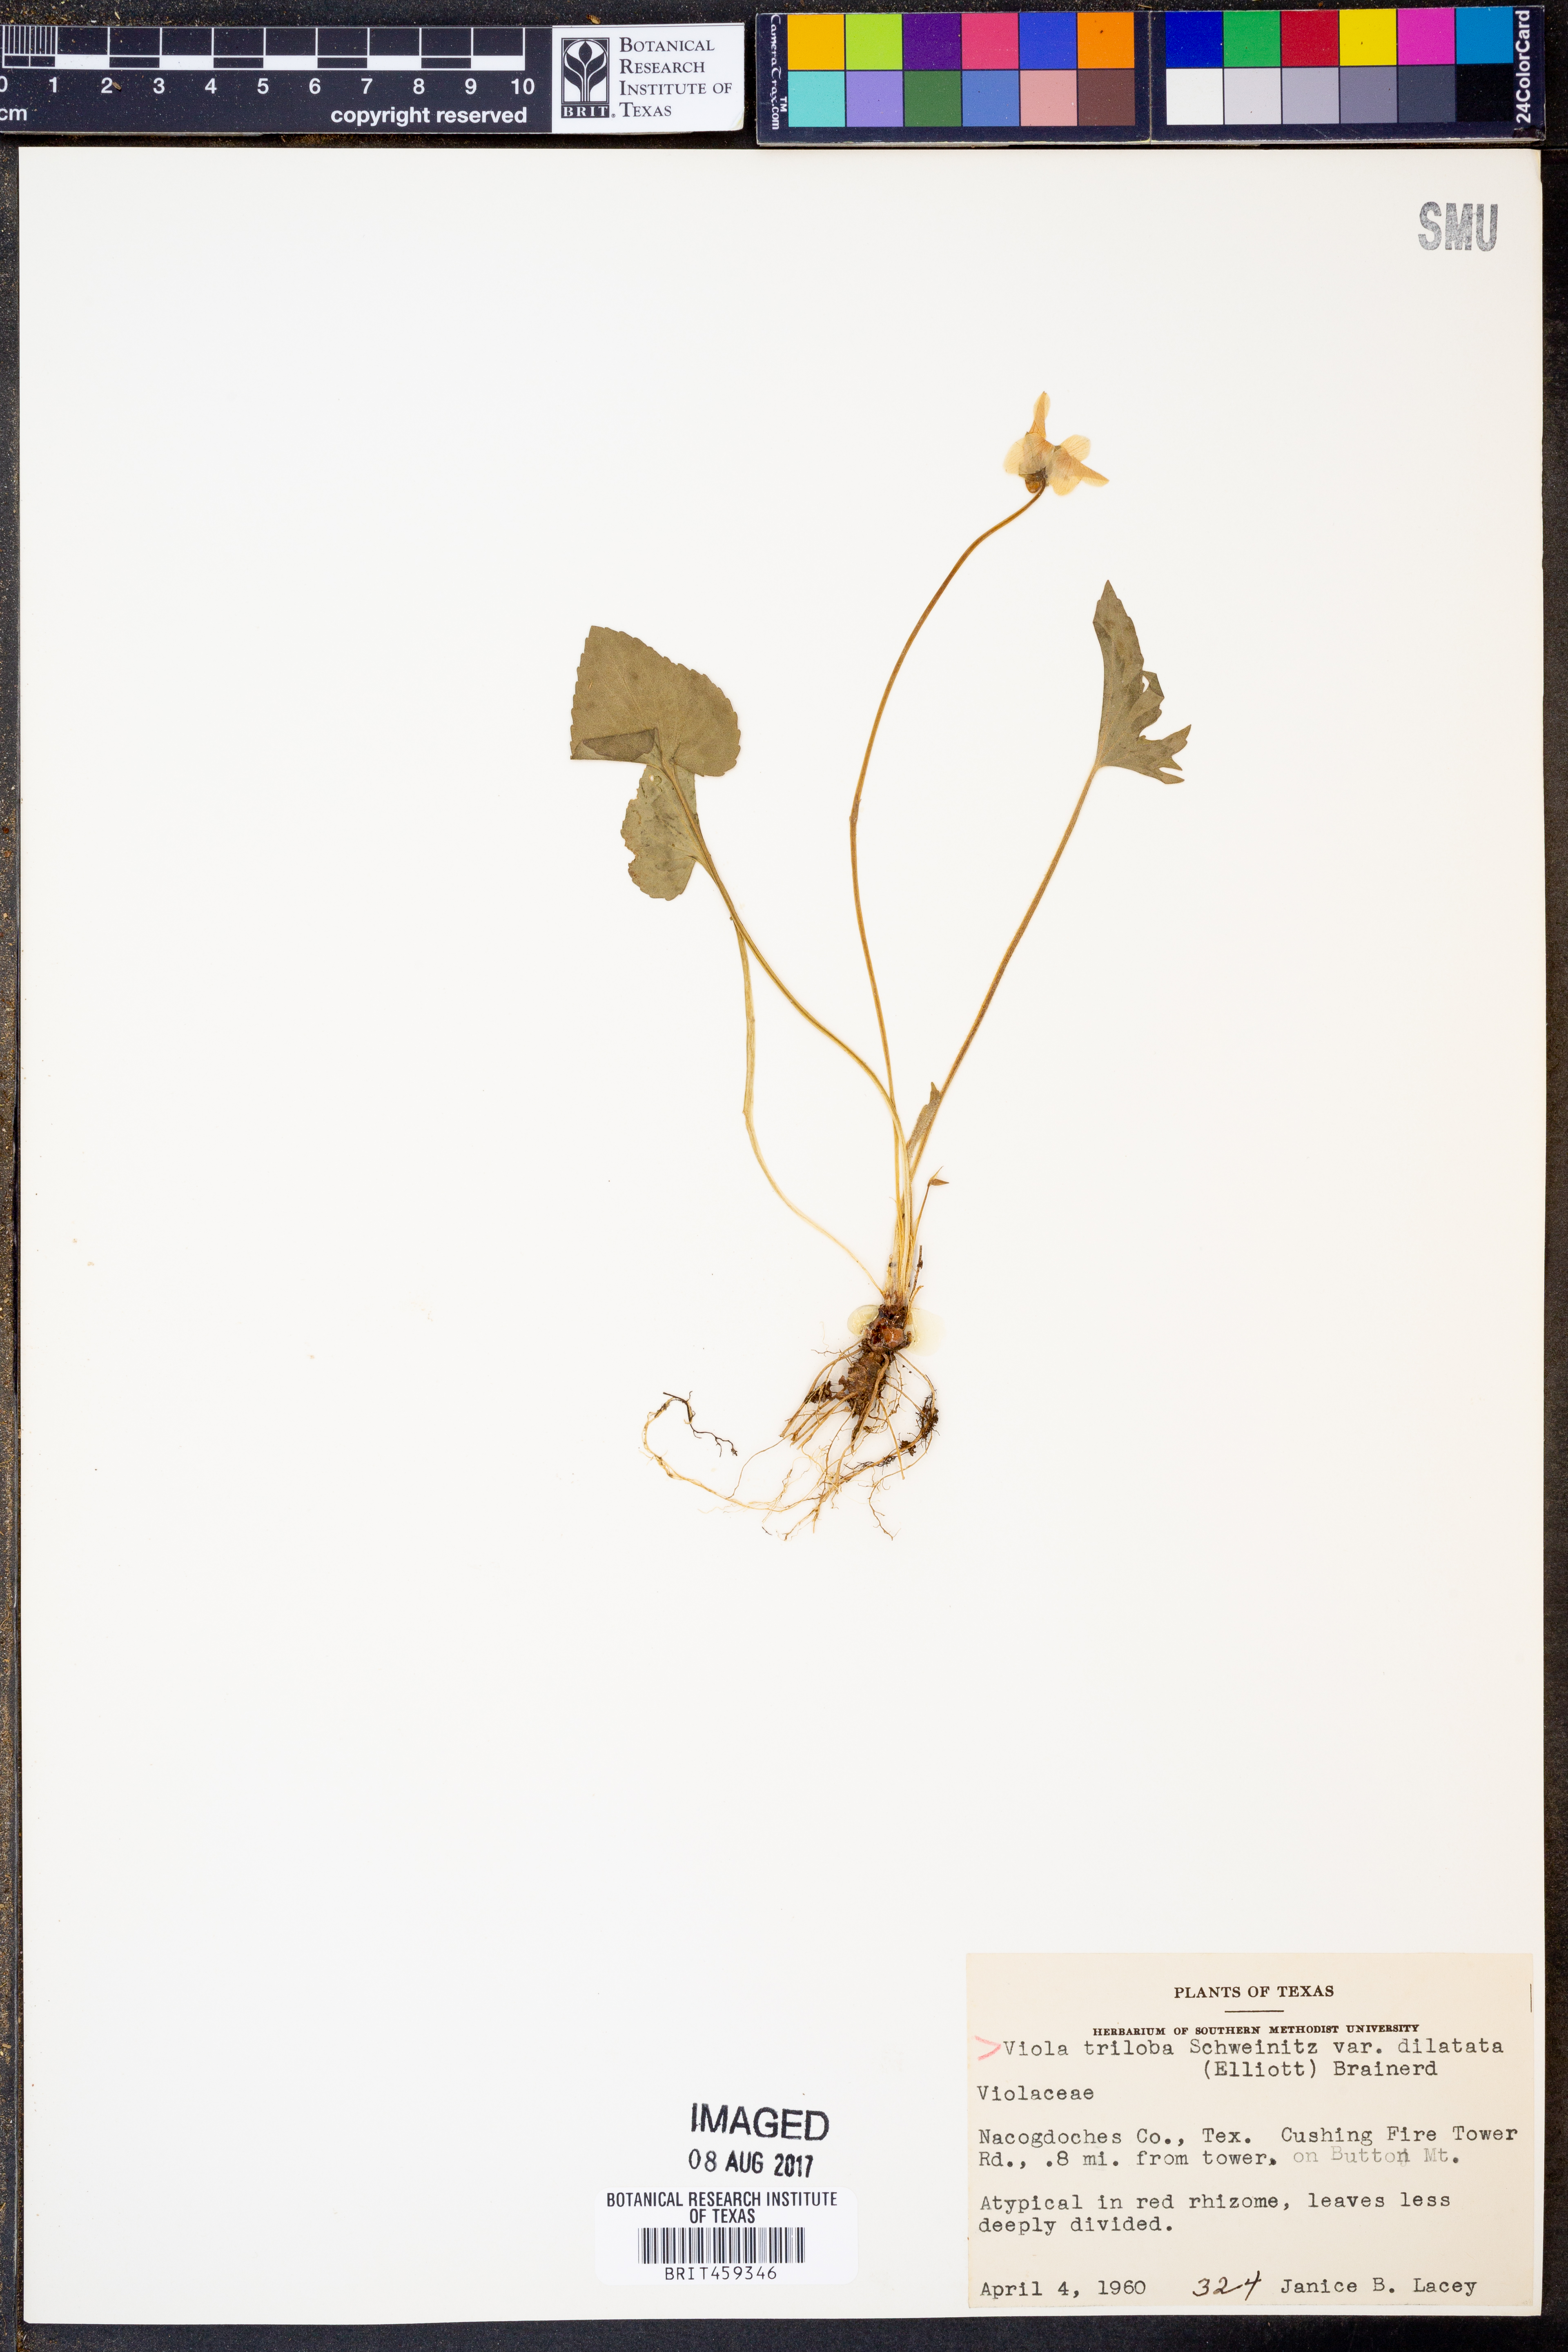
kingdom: Plantae
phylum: Tracheophyta
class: Magnoliopsida
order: Malpighiales
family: Violaceae
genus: Viola
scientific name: Viola palmata
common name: Early blue violet
